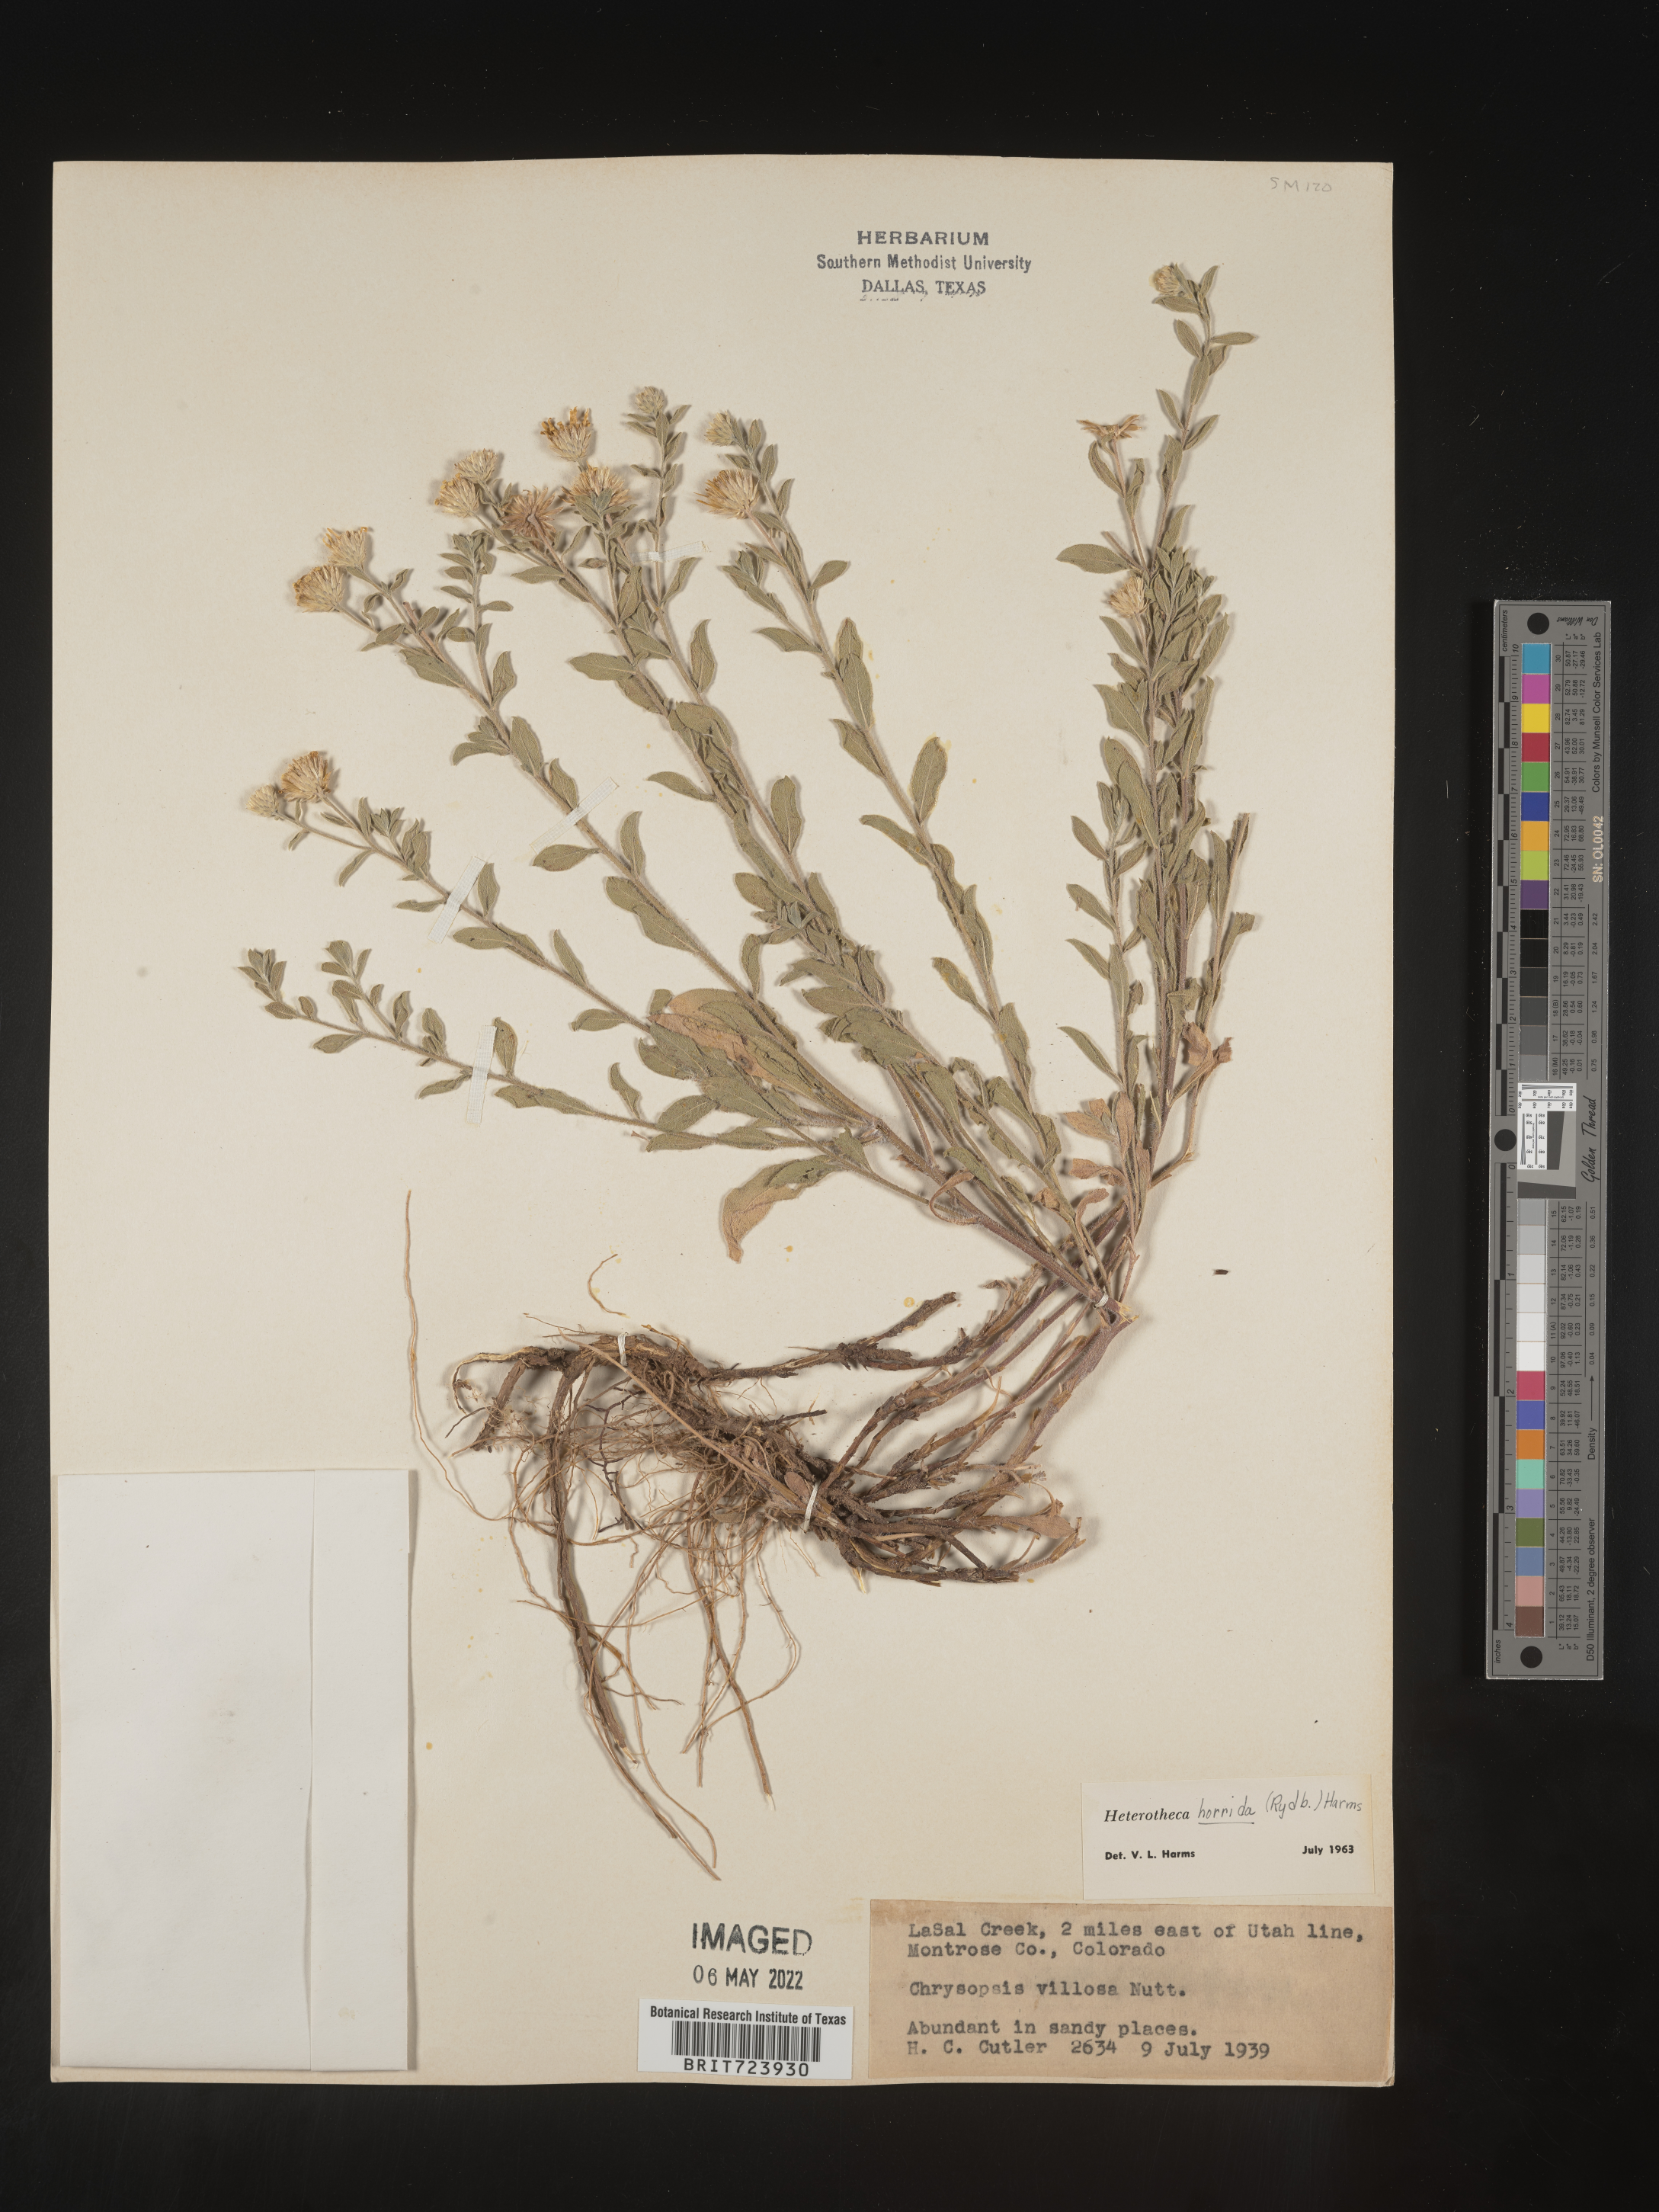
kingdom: Plantae
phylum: Tracheophyta
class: Magnoliopsida
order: Asterales
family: Asteraceae
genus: Heterotheca
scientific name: Heterotheca pedunculata
